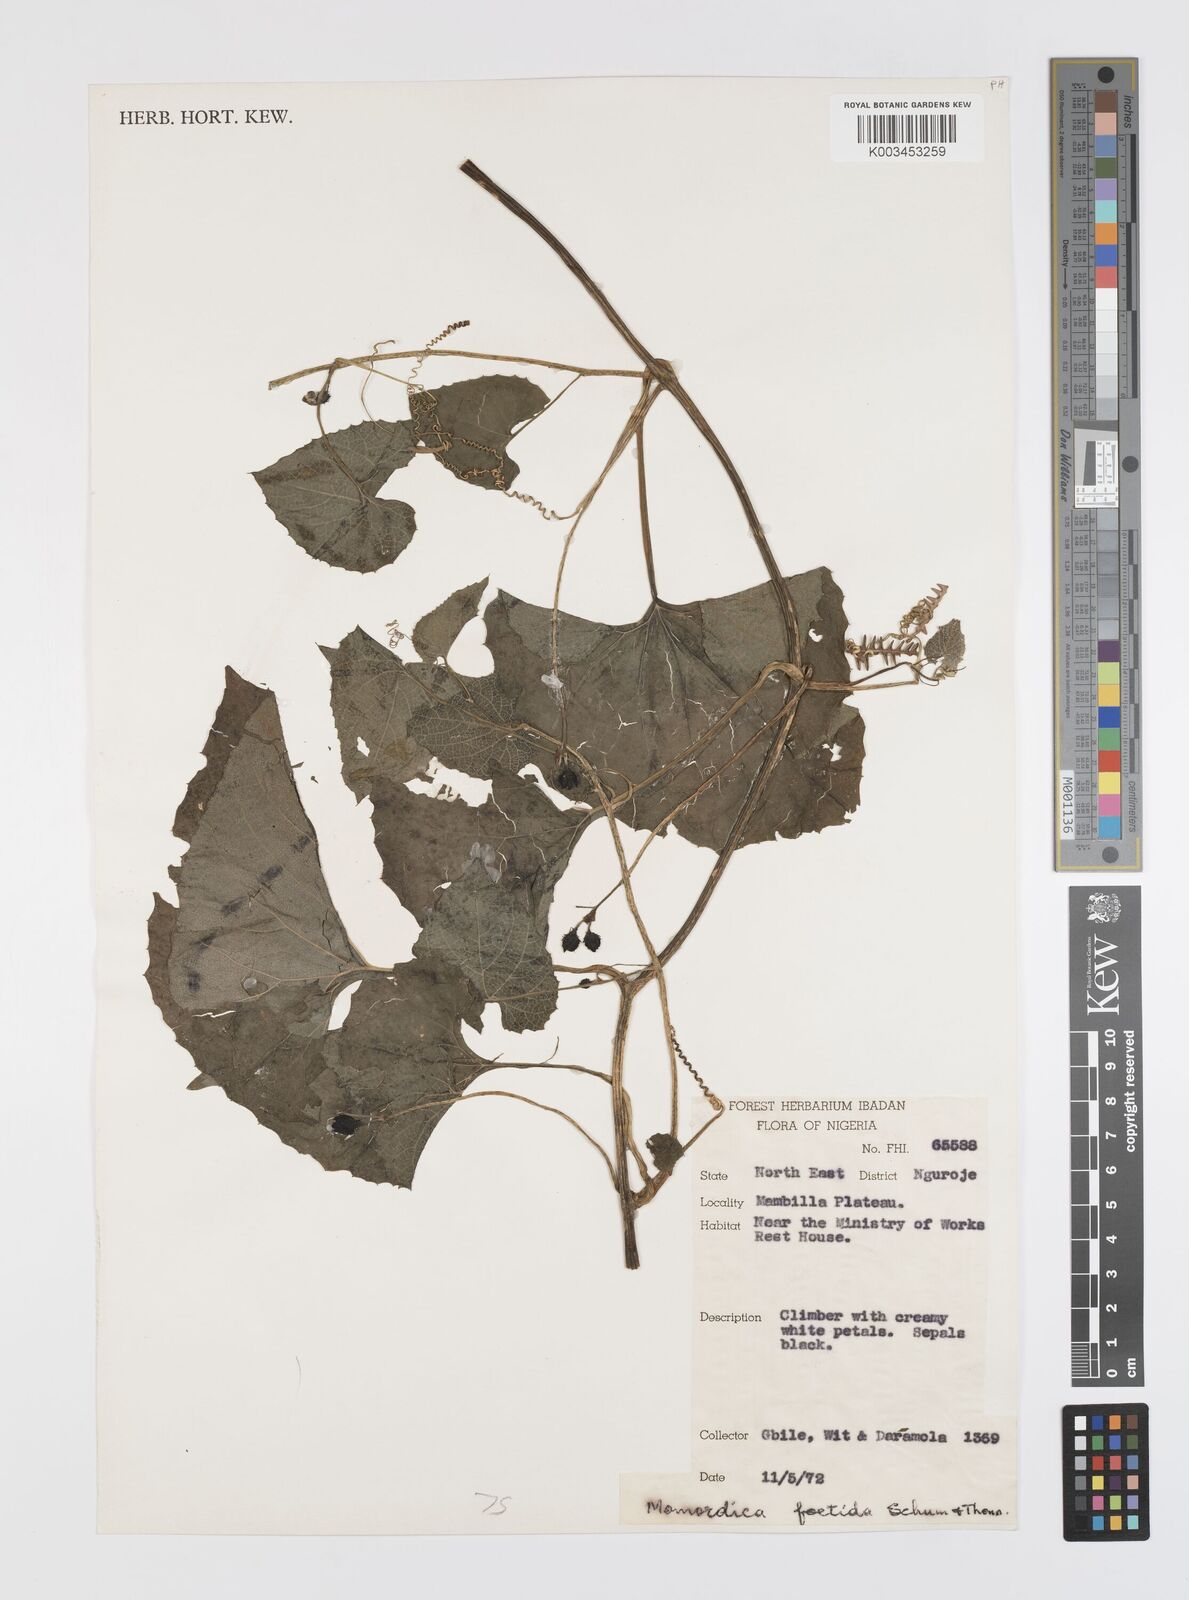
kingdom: Plantae
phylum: Tracheophyta
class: Magnoliopsida
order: Cucurbitales
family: Cucurbitaceae
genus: Momordica
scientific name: Momordica foetida
